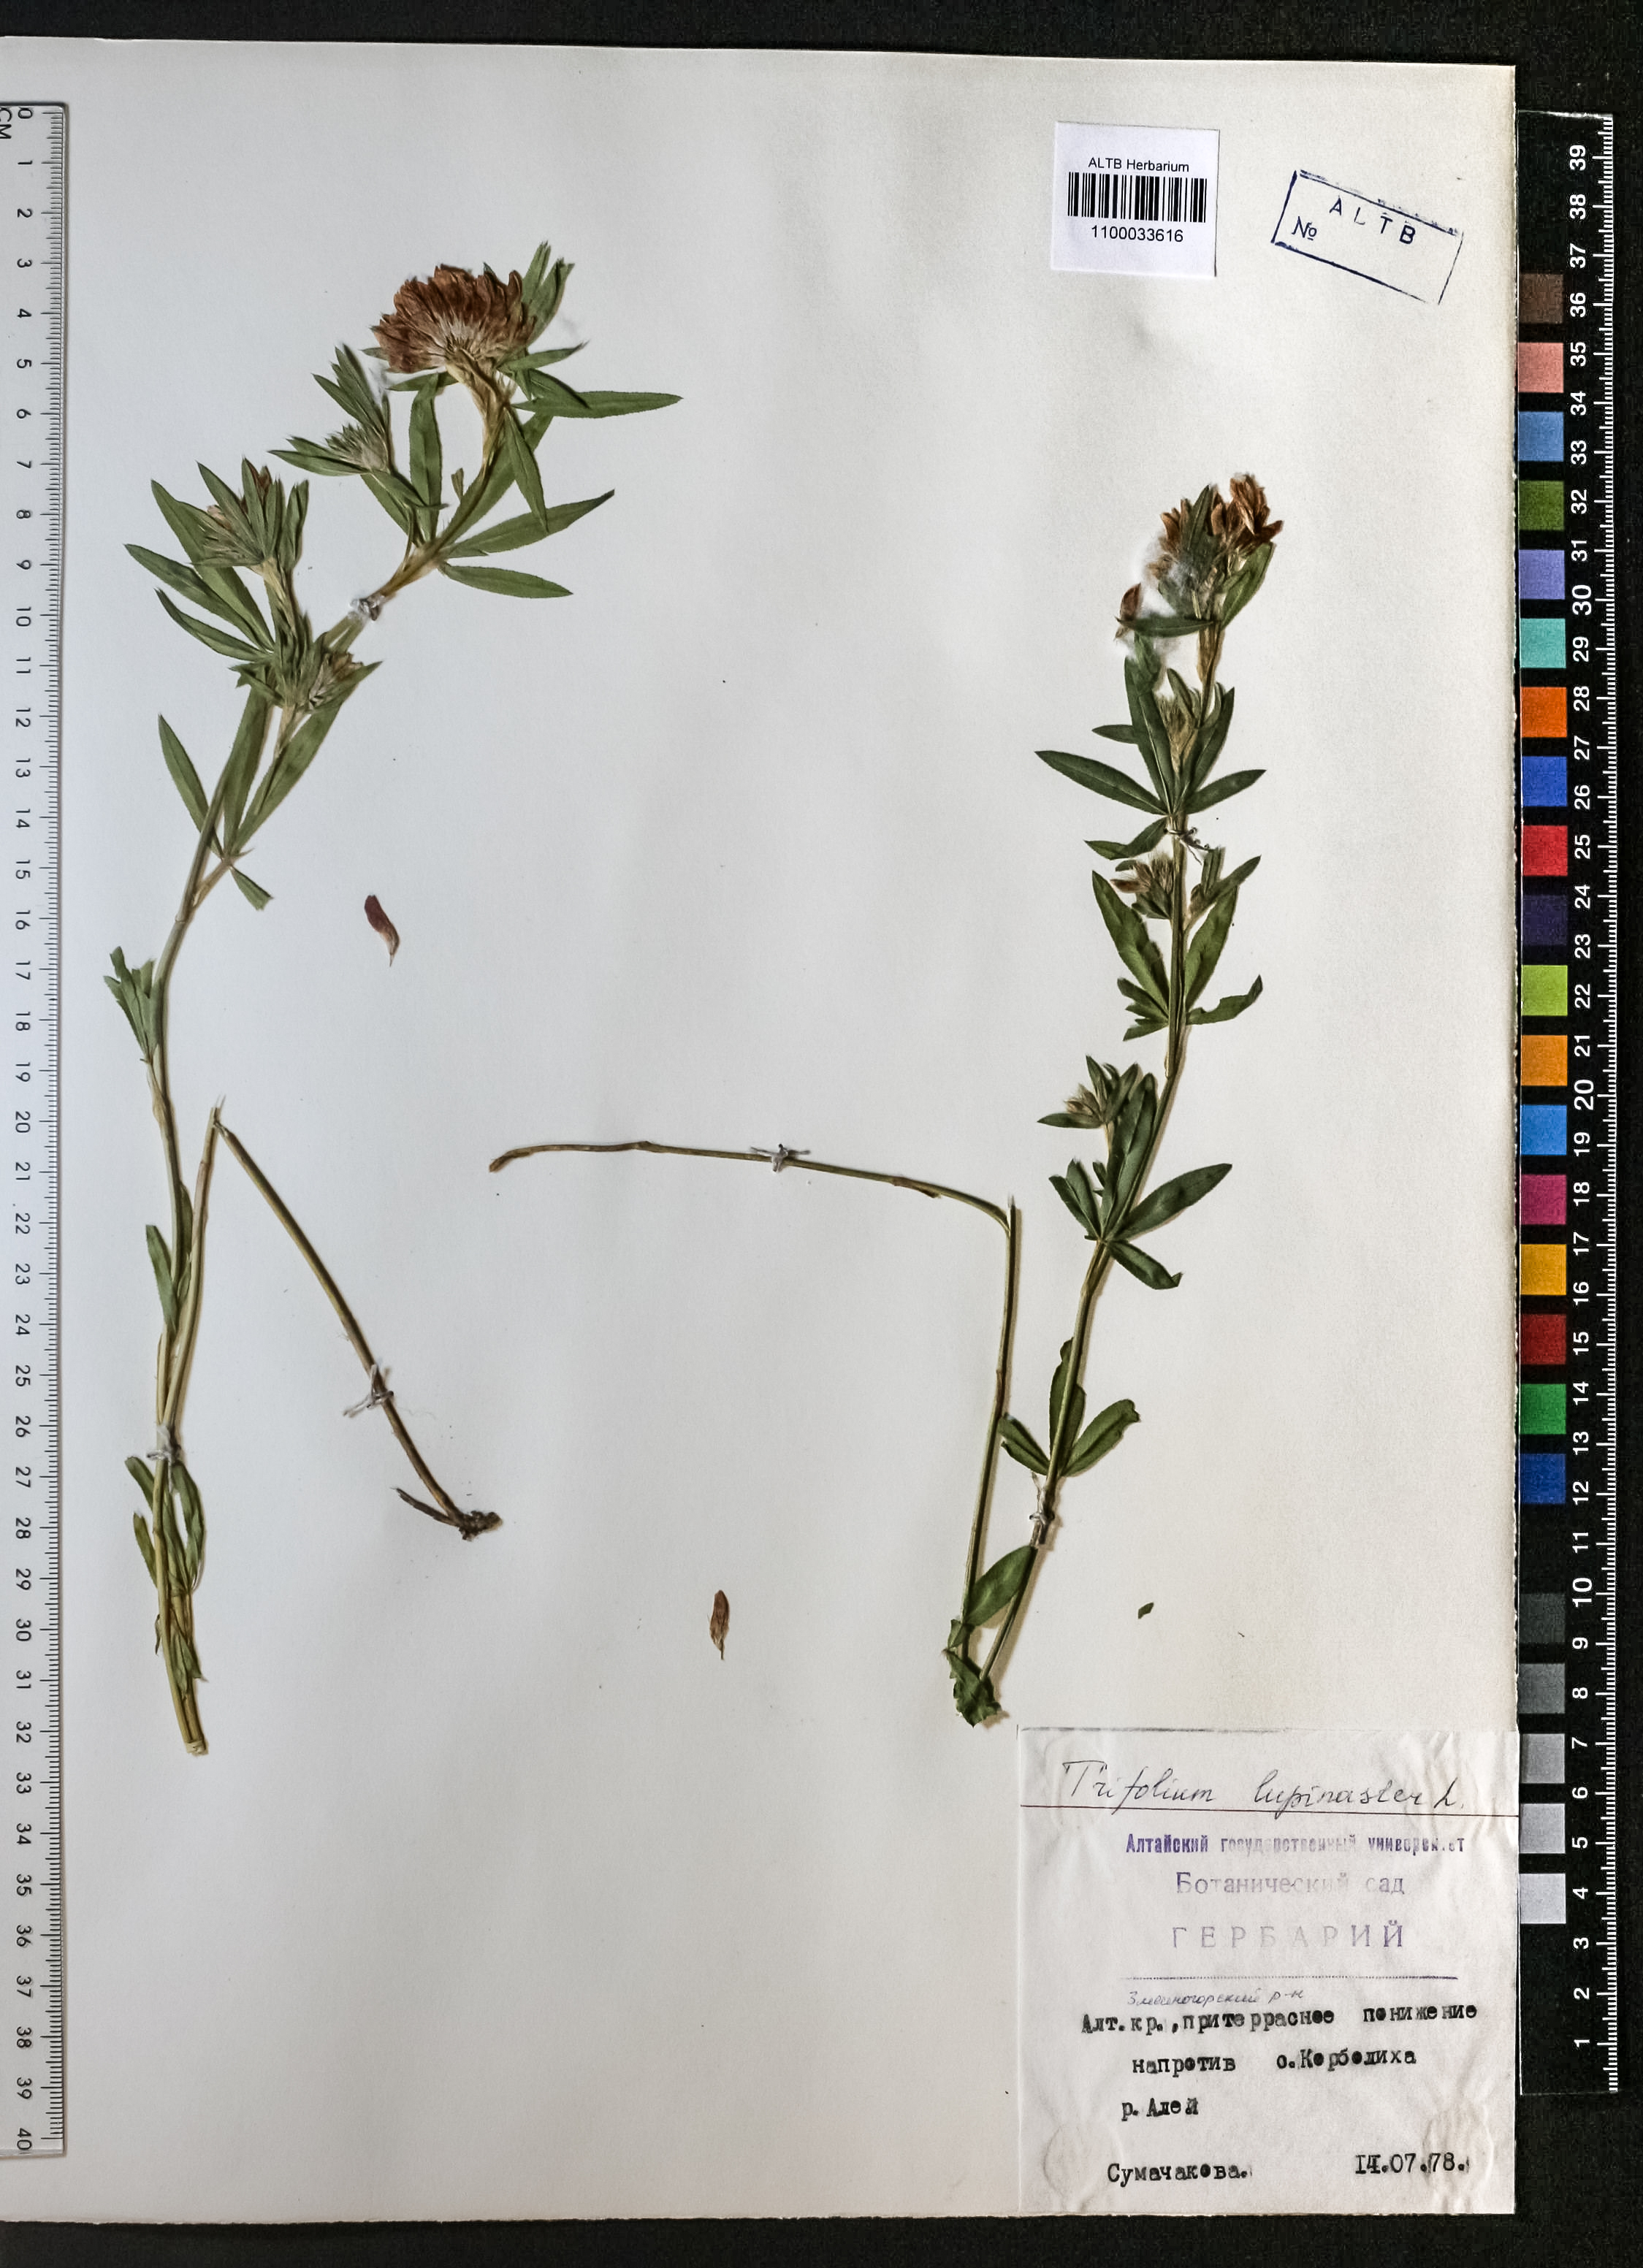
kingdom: Plantae
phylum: Tracheophyta
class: Magnoliopsida
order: Fabales
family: Fabaceae
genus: Trifolium
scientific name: Trifolium lupinaster
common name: Lupine clover
